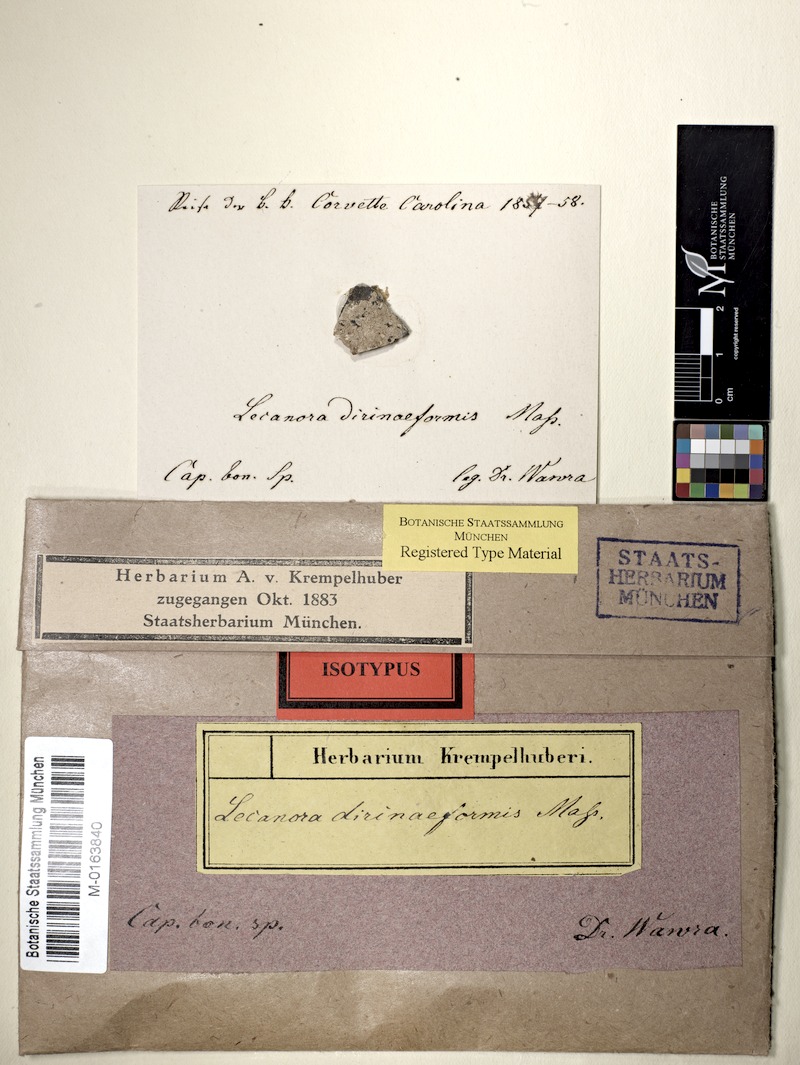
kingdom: Fungi
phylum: Ascomycota
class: Lecanoromycetes
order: Lecanorales
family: Lecanoraceae
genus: Lecanora
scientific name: Lecanora
